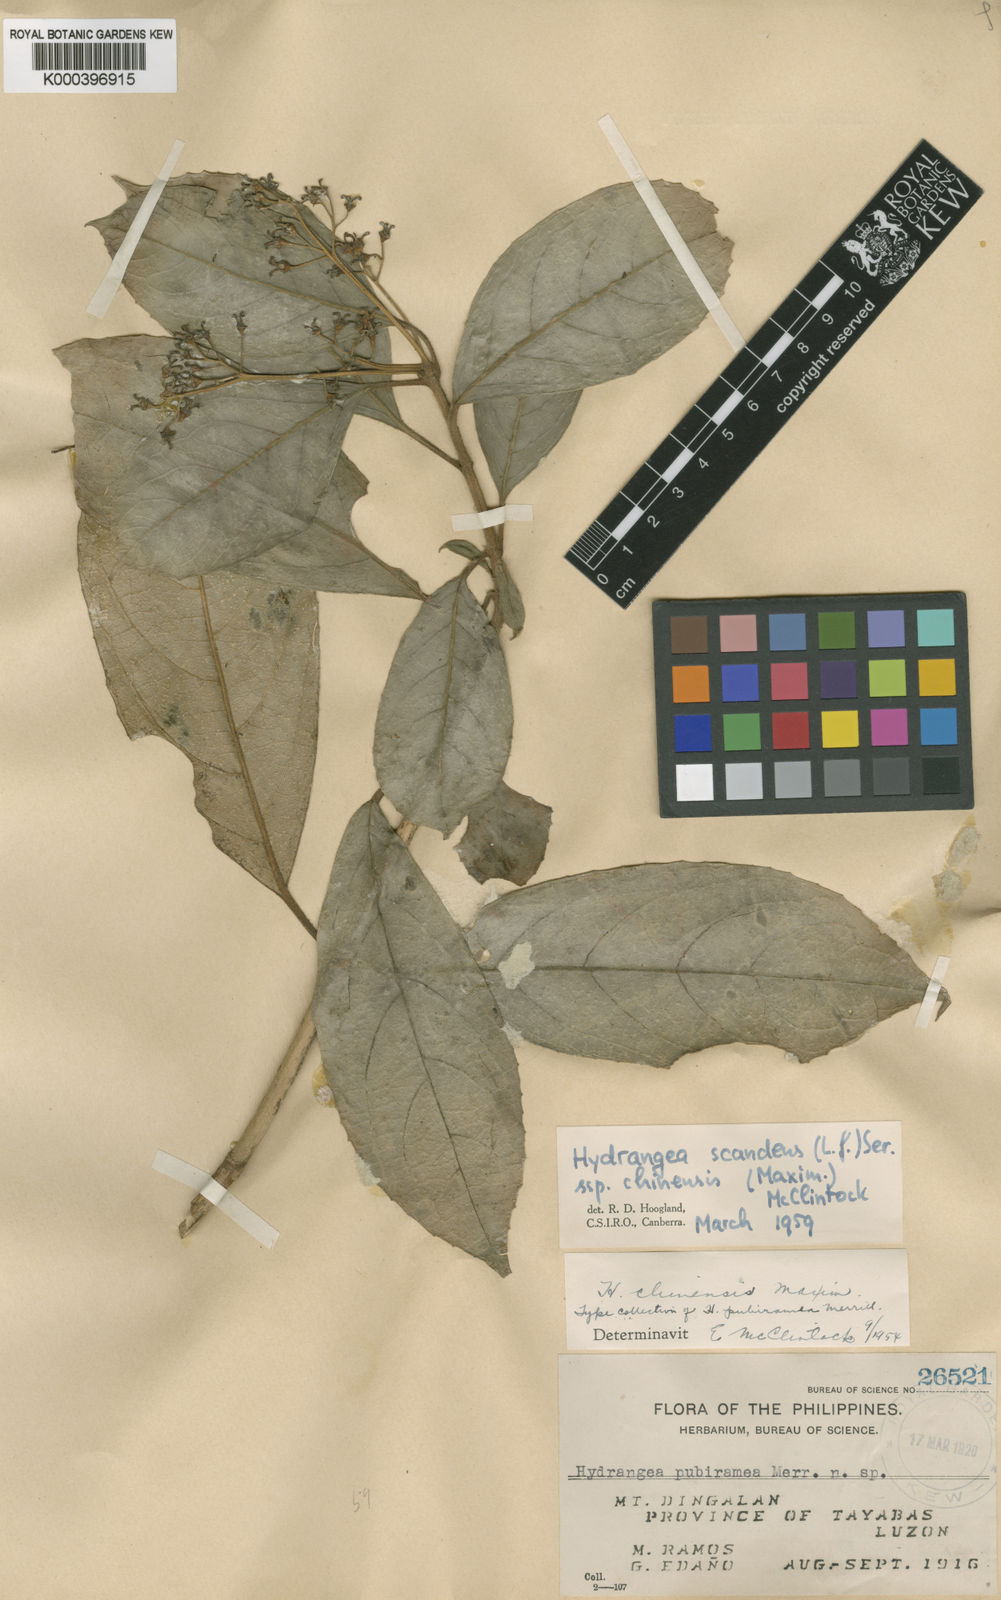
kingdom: Plantae
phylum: Tracheophyta
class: Magnoliopsida
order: Cornales
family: Hydrangeaceae
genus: Hydrangea
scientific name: Hydrangea scandens
